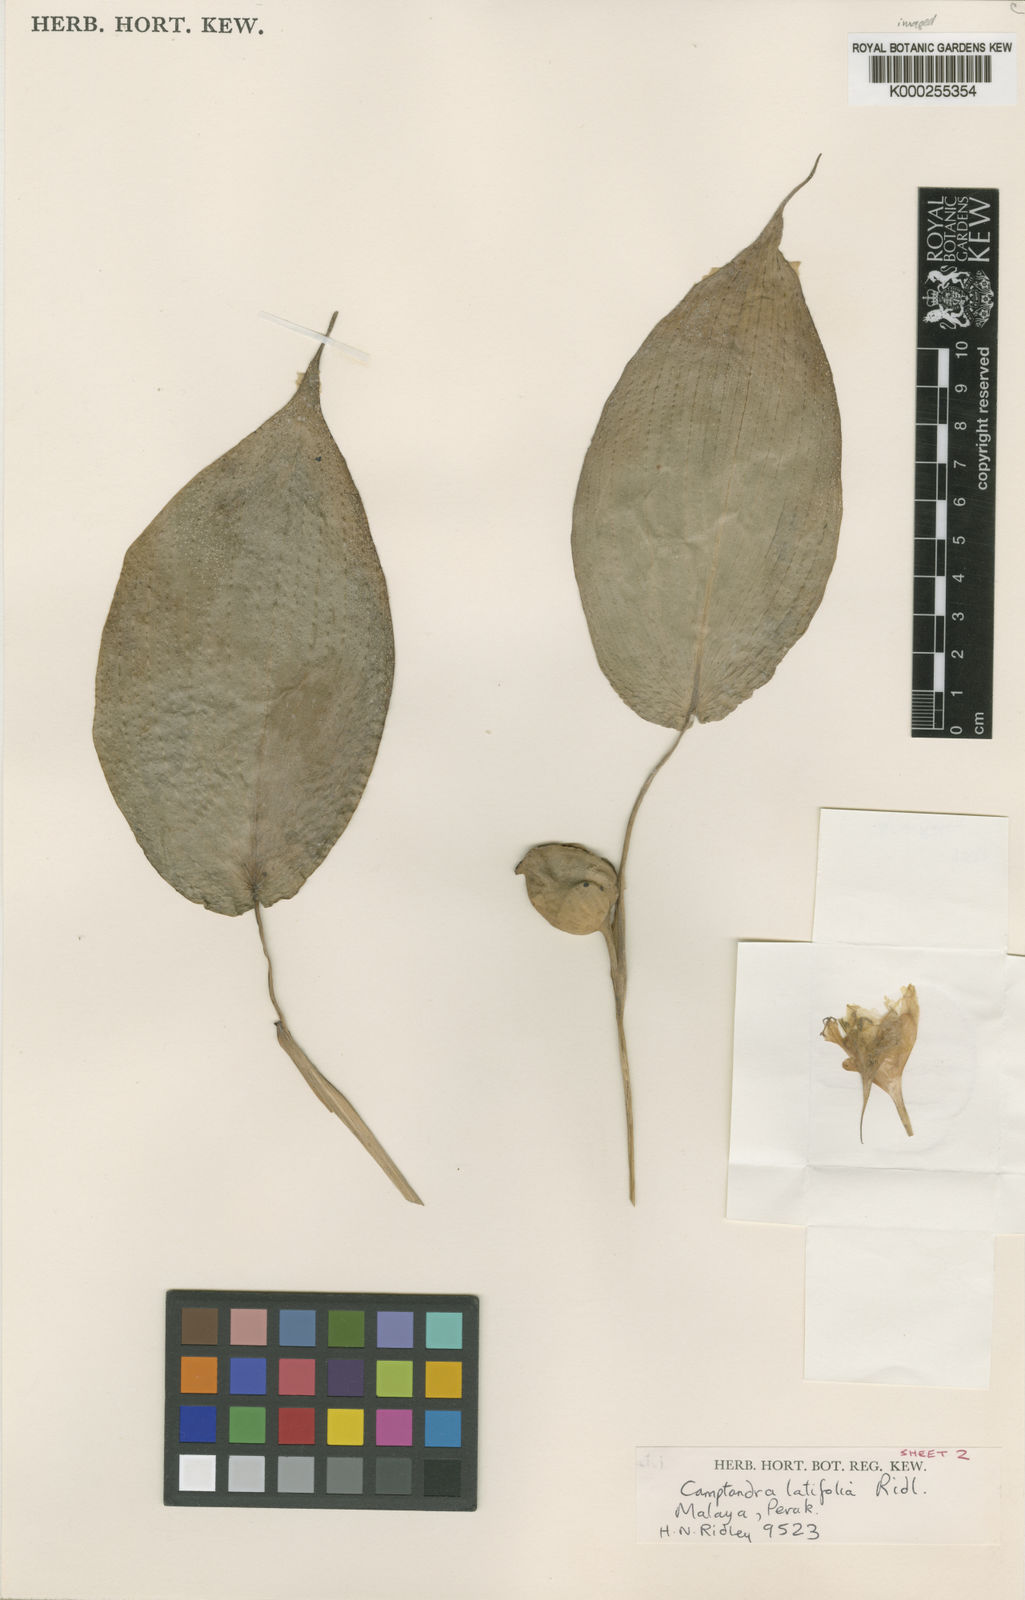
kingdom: Plantae
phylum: Tracheophyta
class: Liliopsida
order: Zingiberales
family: Zingiberaceae
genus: Camptandra
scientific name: Camptandra latifolia
